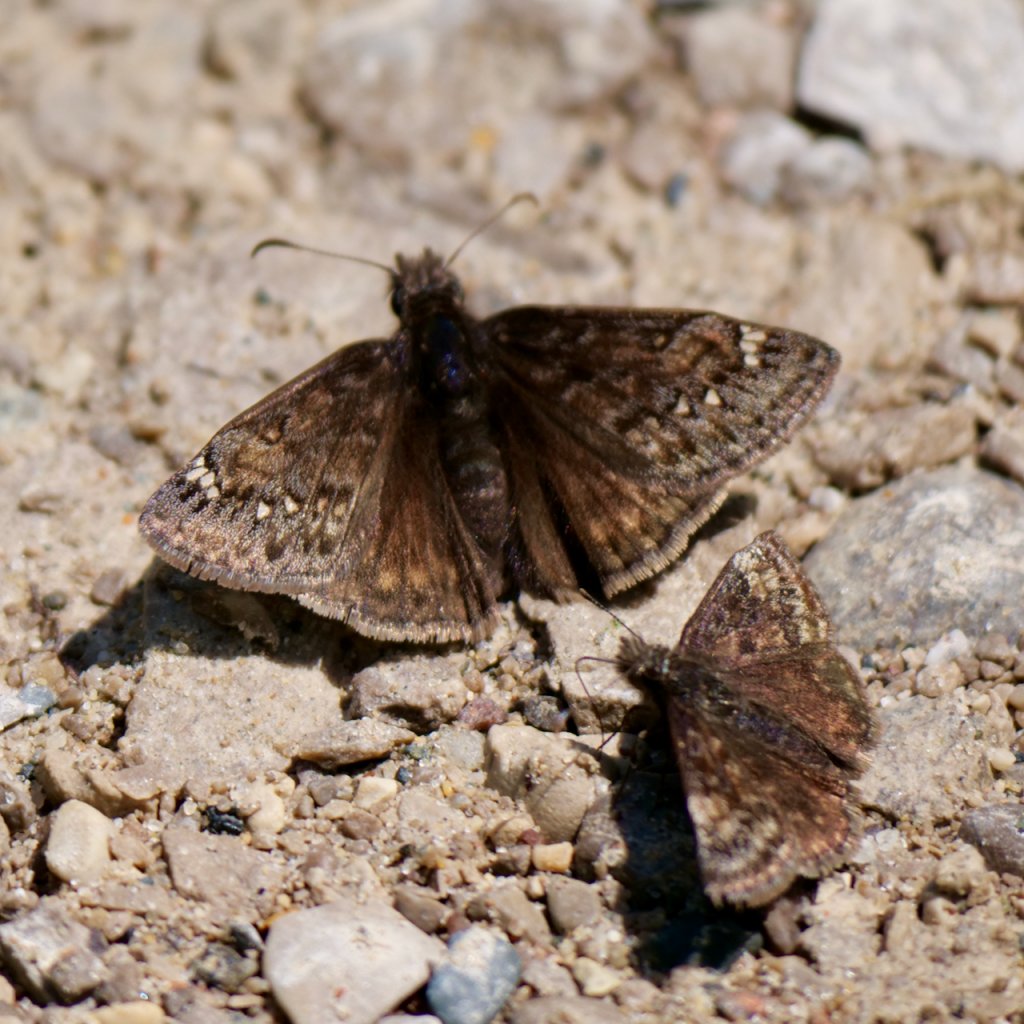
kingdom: Animalia
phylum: Arthropoda
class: Insecta
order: Lepidoptera
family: Hesperiidae
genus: Gesta
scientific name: Gesta
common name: Juvenal's Duskywing
